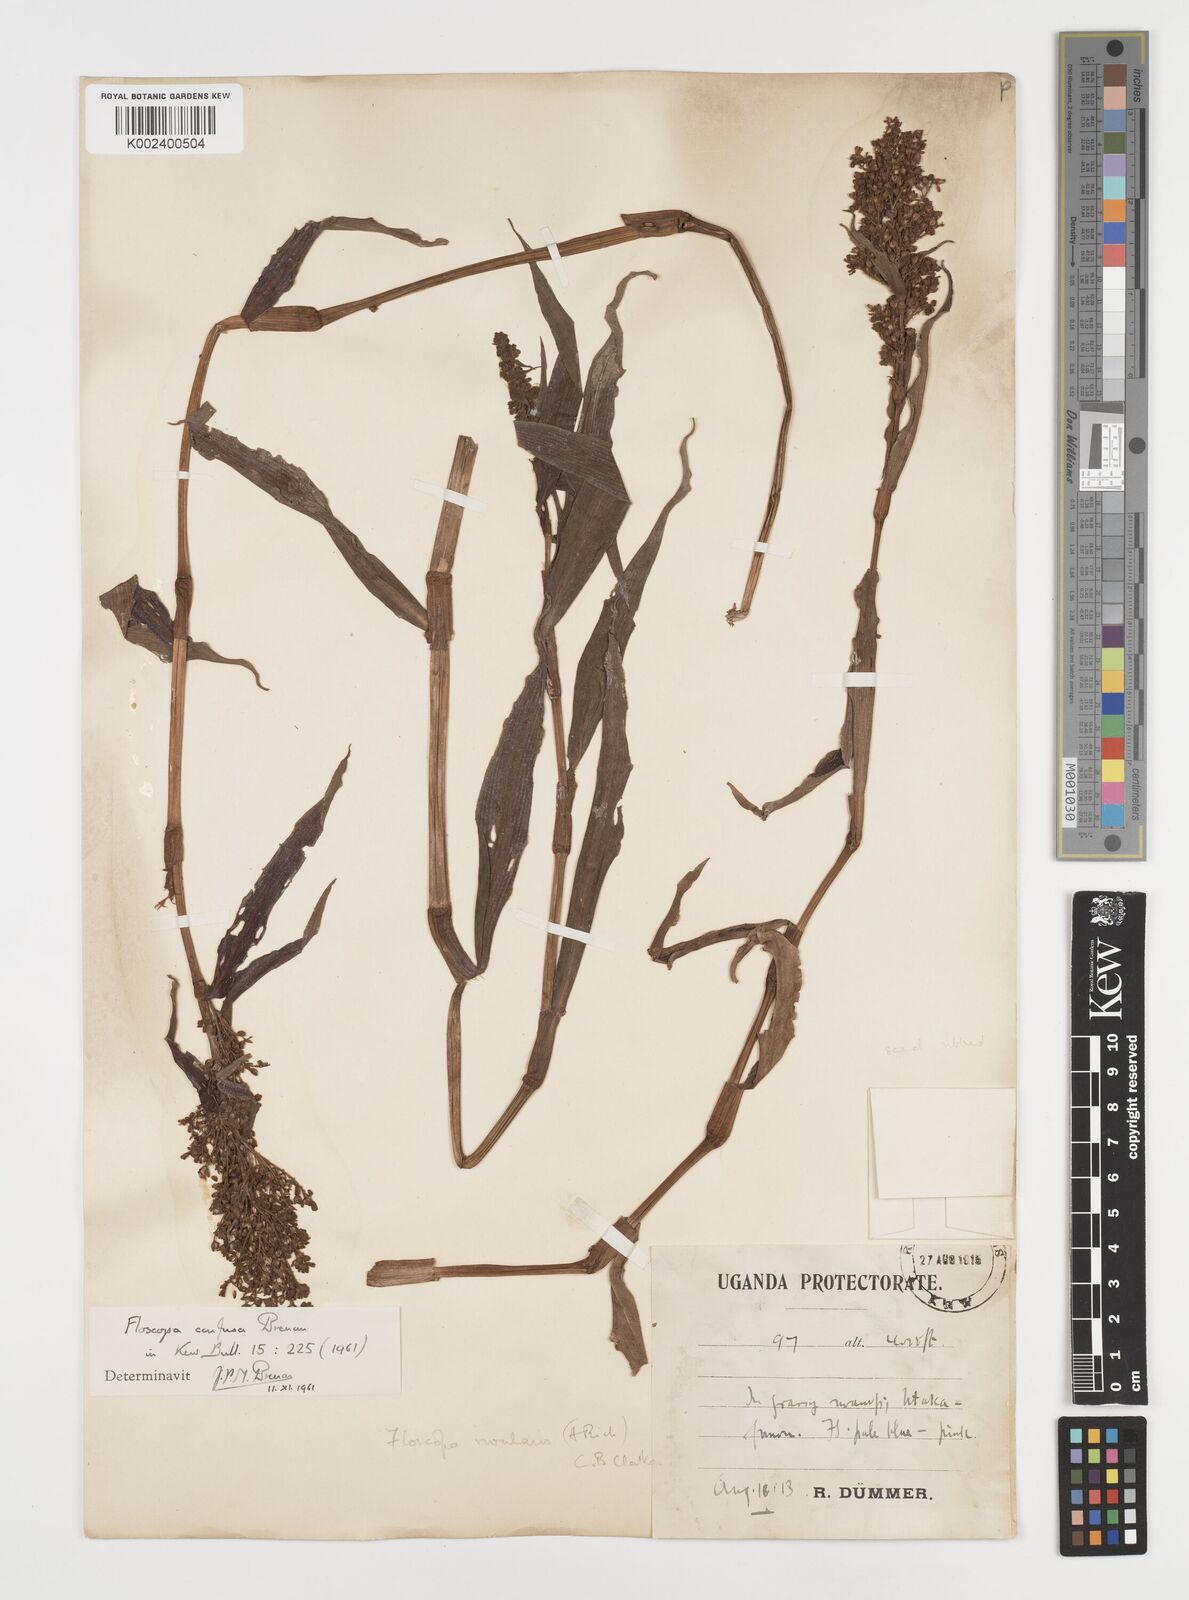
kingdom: Plantae
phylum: Tracheophyta
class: Liliopsida
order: Commelinales
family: Commelinaceae
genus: Floscopa
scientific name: Floscopa confusa
